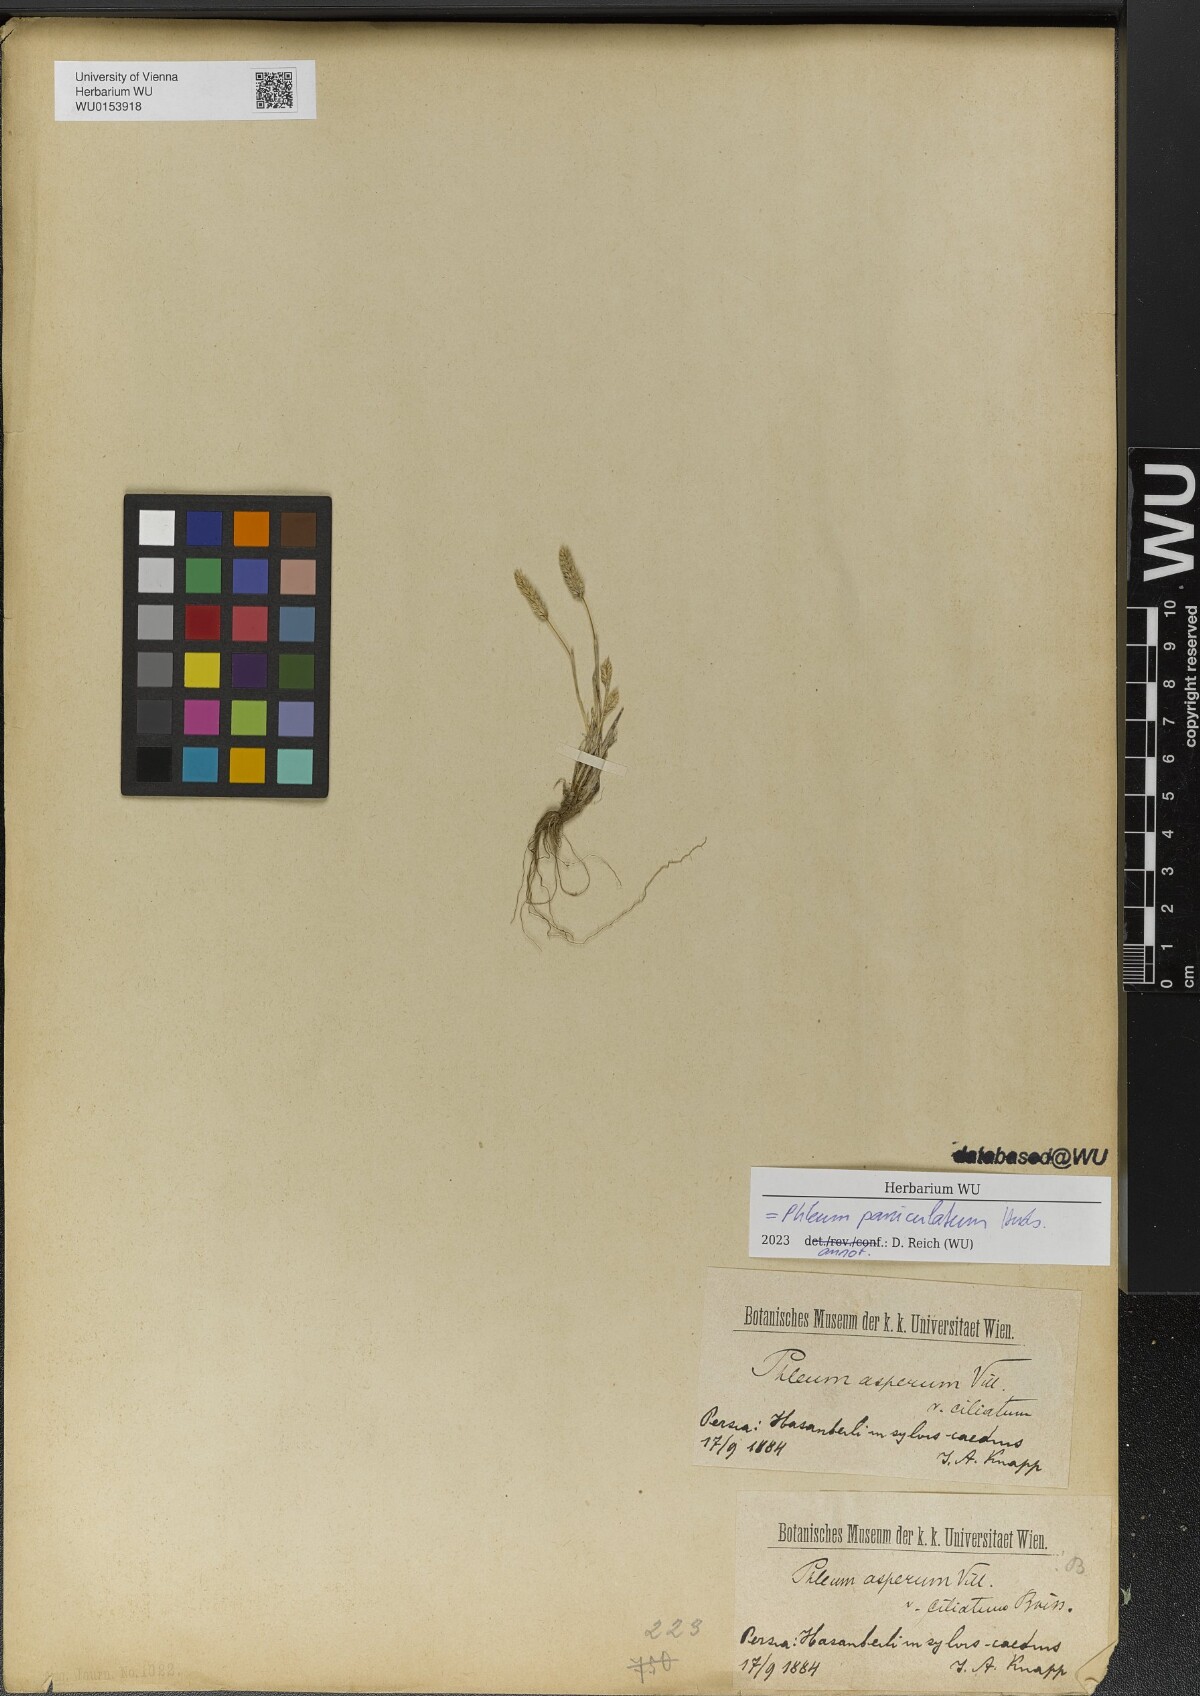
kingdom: Plantae
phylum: Tracheophyta
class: Liliopsida
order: Poales
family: Poaceae
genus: Phleum
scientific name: Phleum paniculatum
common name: British timothy
